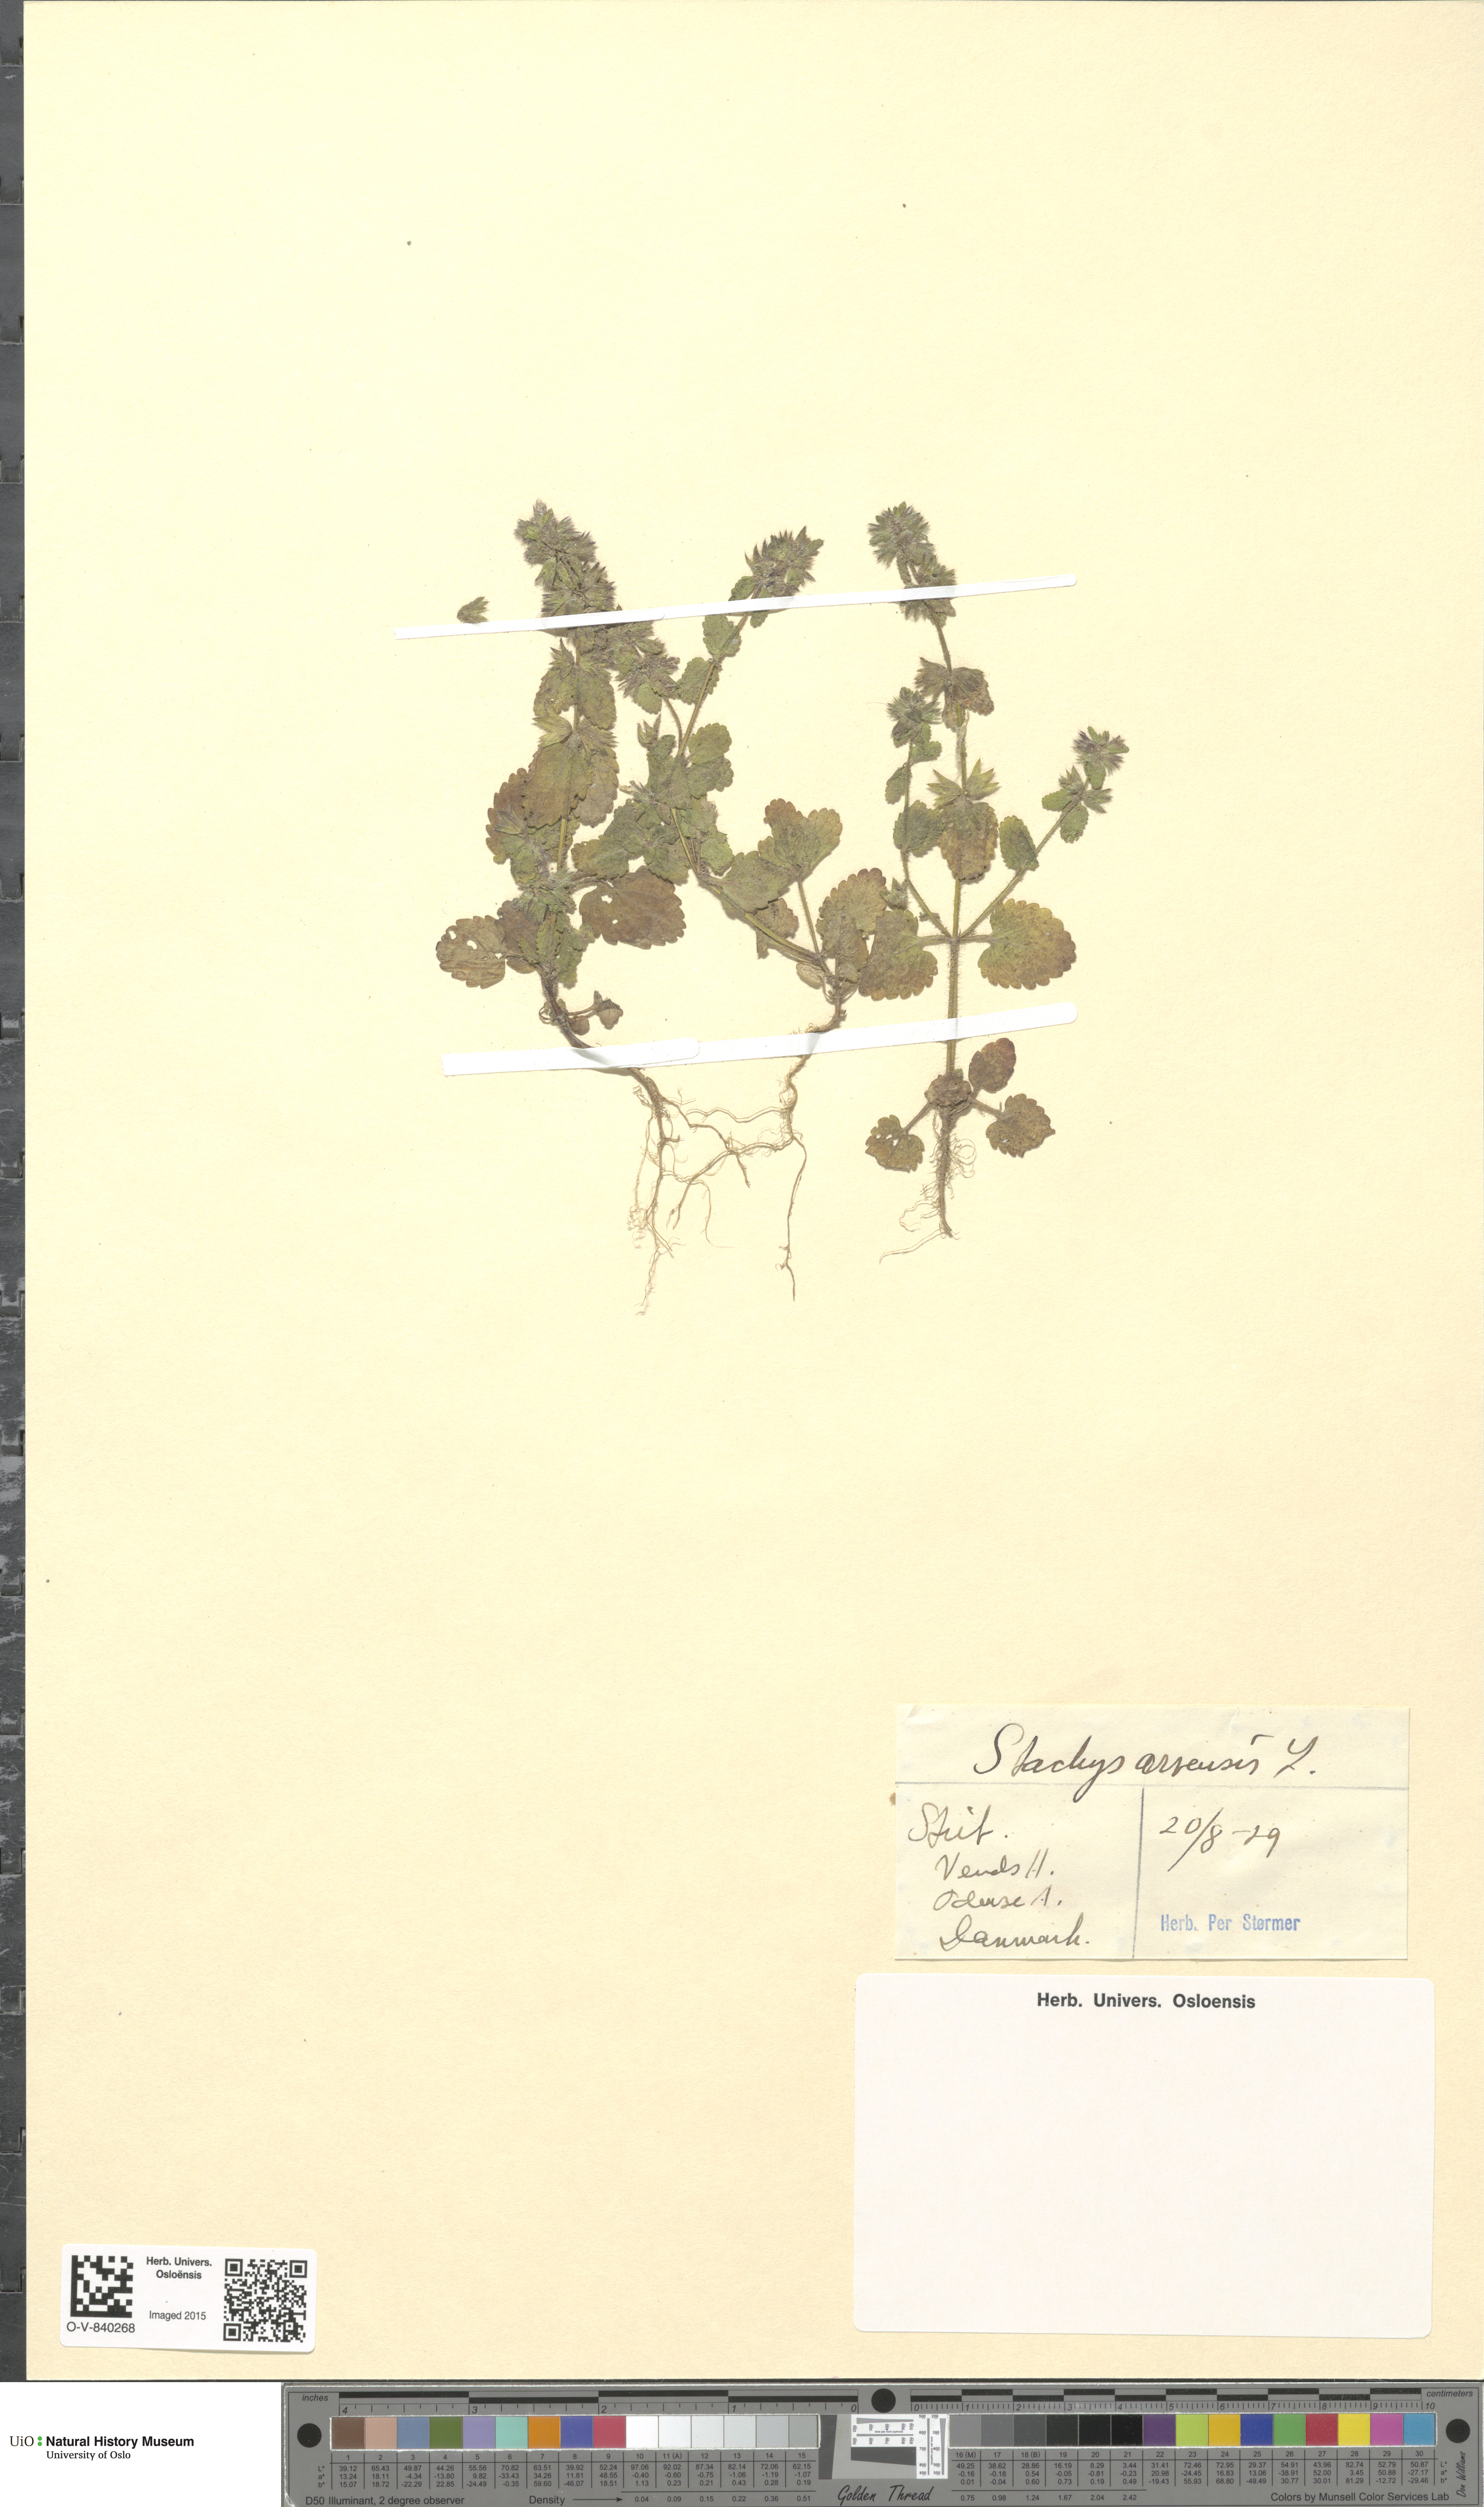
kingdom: Plantae
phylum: Tracheophyta
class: Magnoliopsida
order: Lamiales
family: Lamiaceae
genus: Stachys
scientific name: Stachys arvensis
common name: Field woundwort
